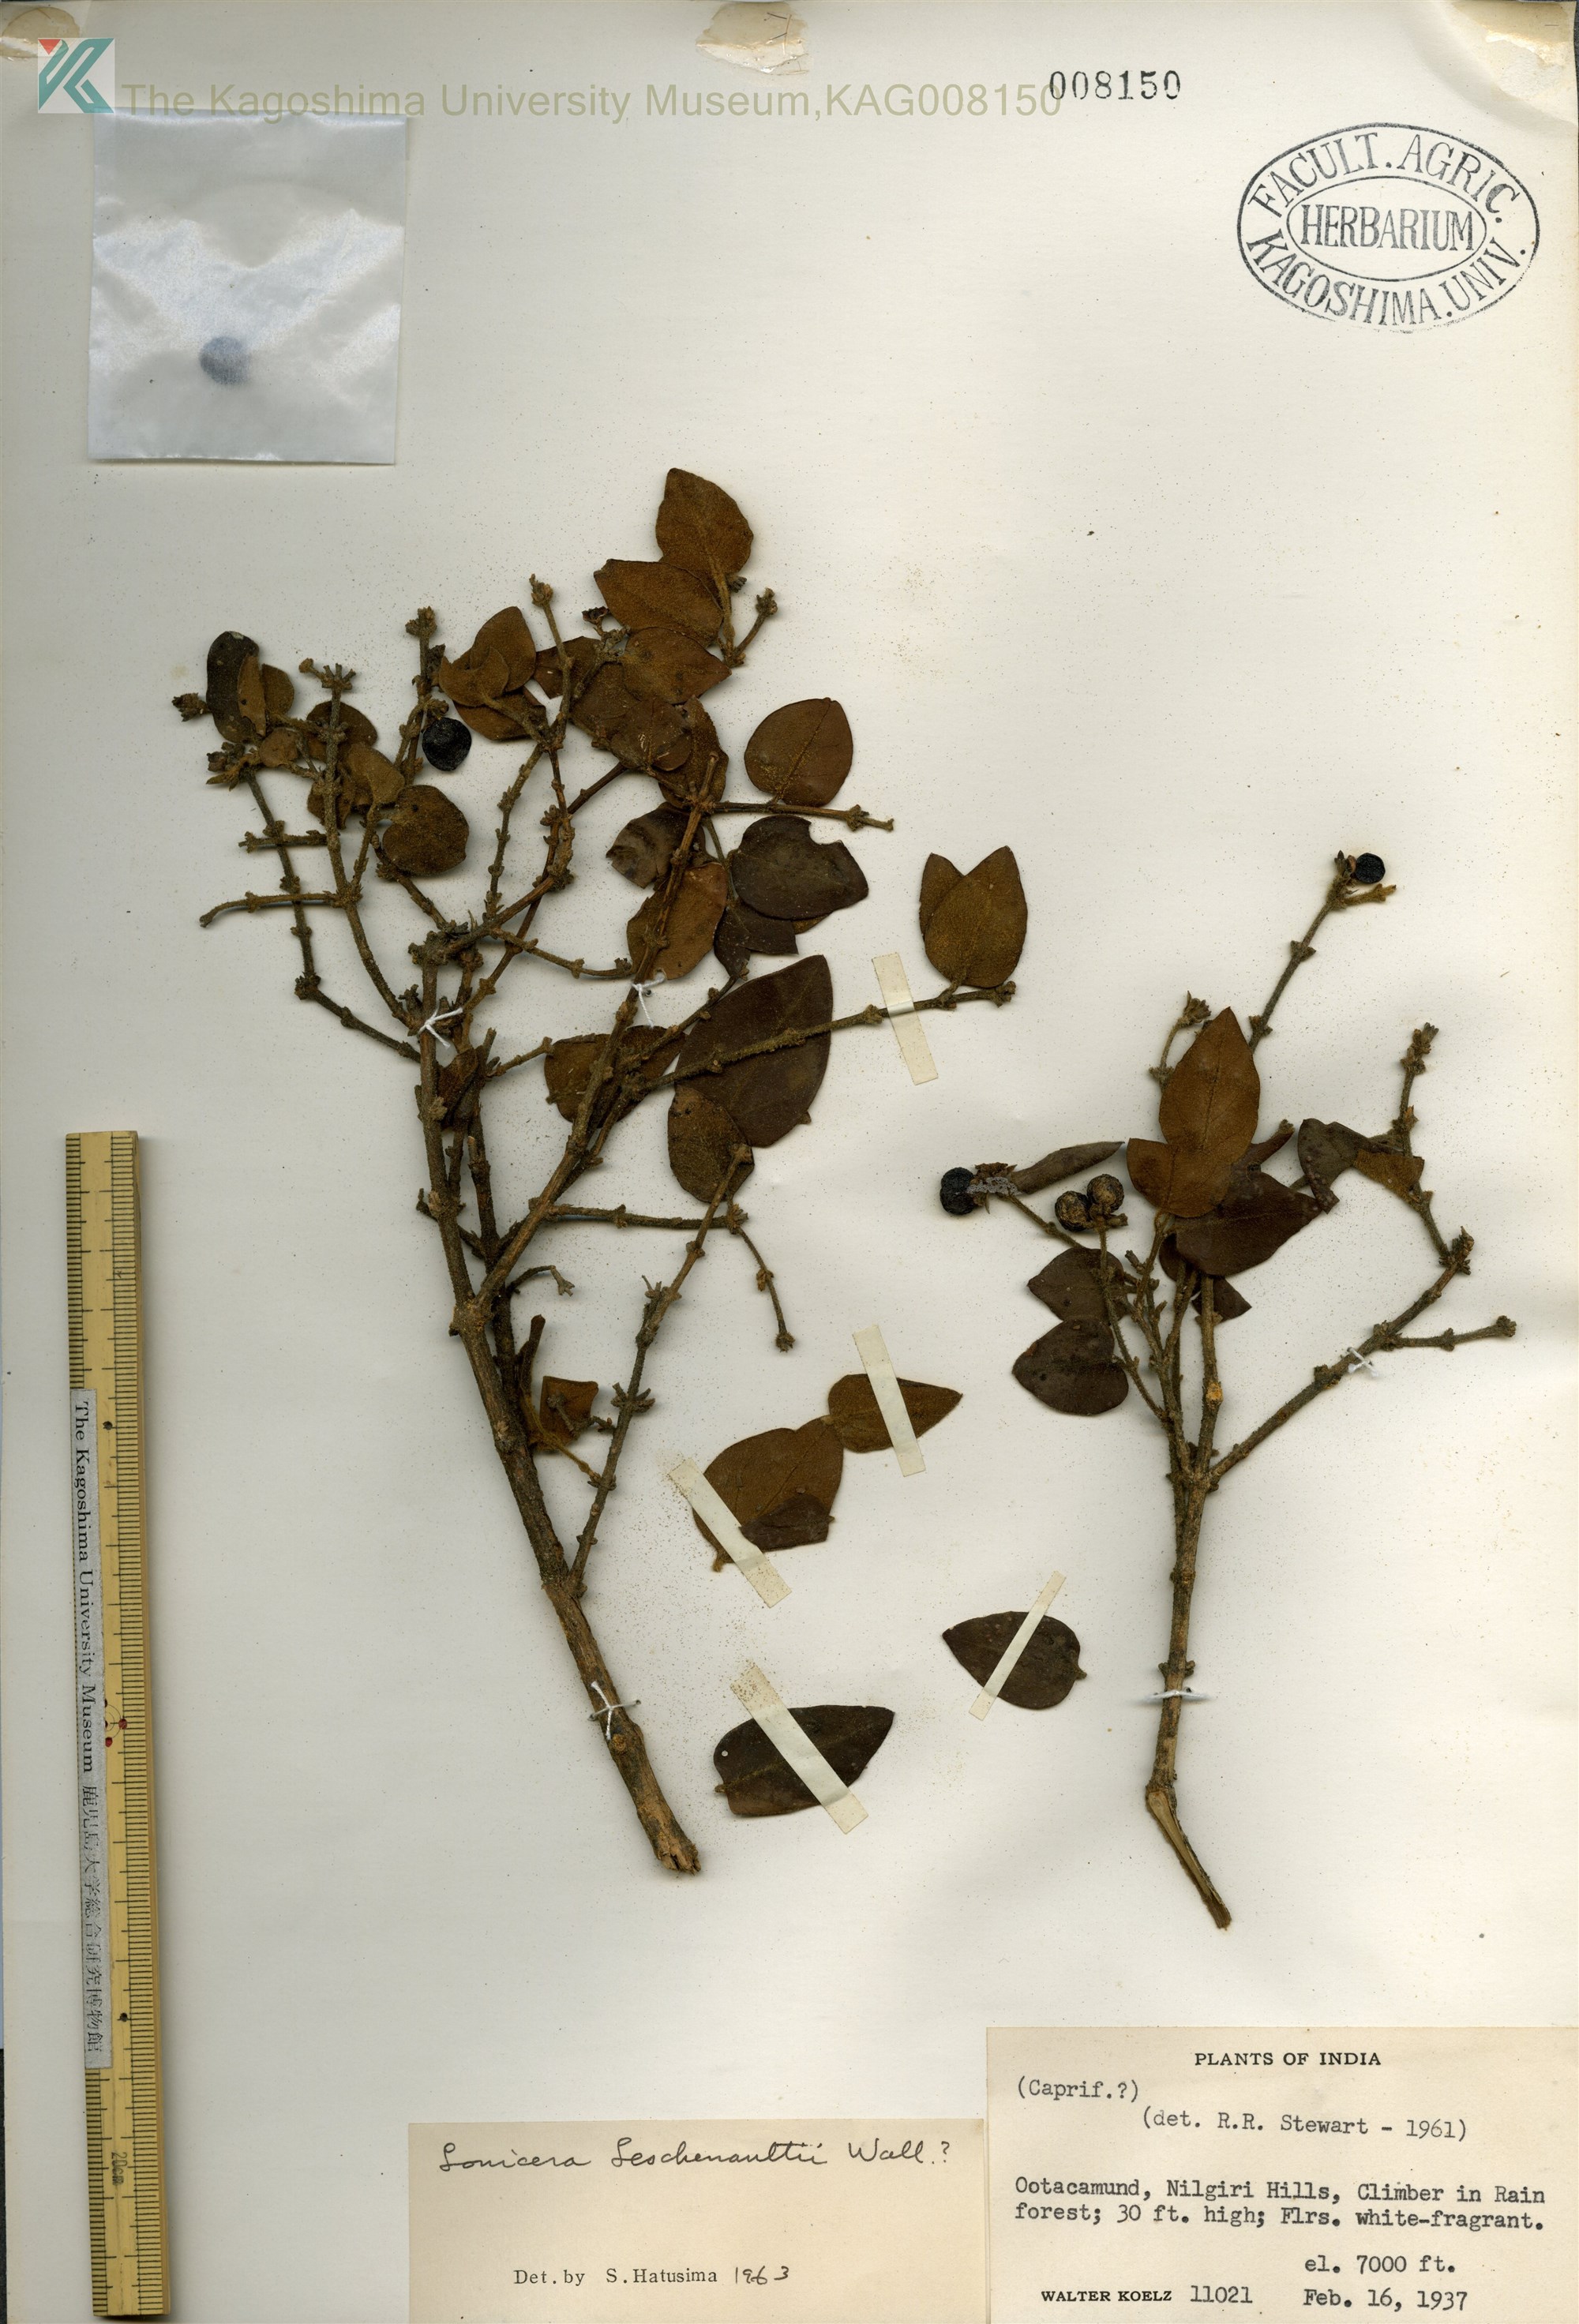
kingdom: Plantae
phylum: Tracheophyta
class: Magnoliopsida
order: Dipsacales
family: Caprifoliaceae
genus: Lonicera
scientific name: Lonicera
